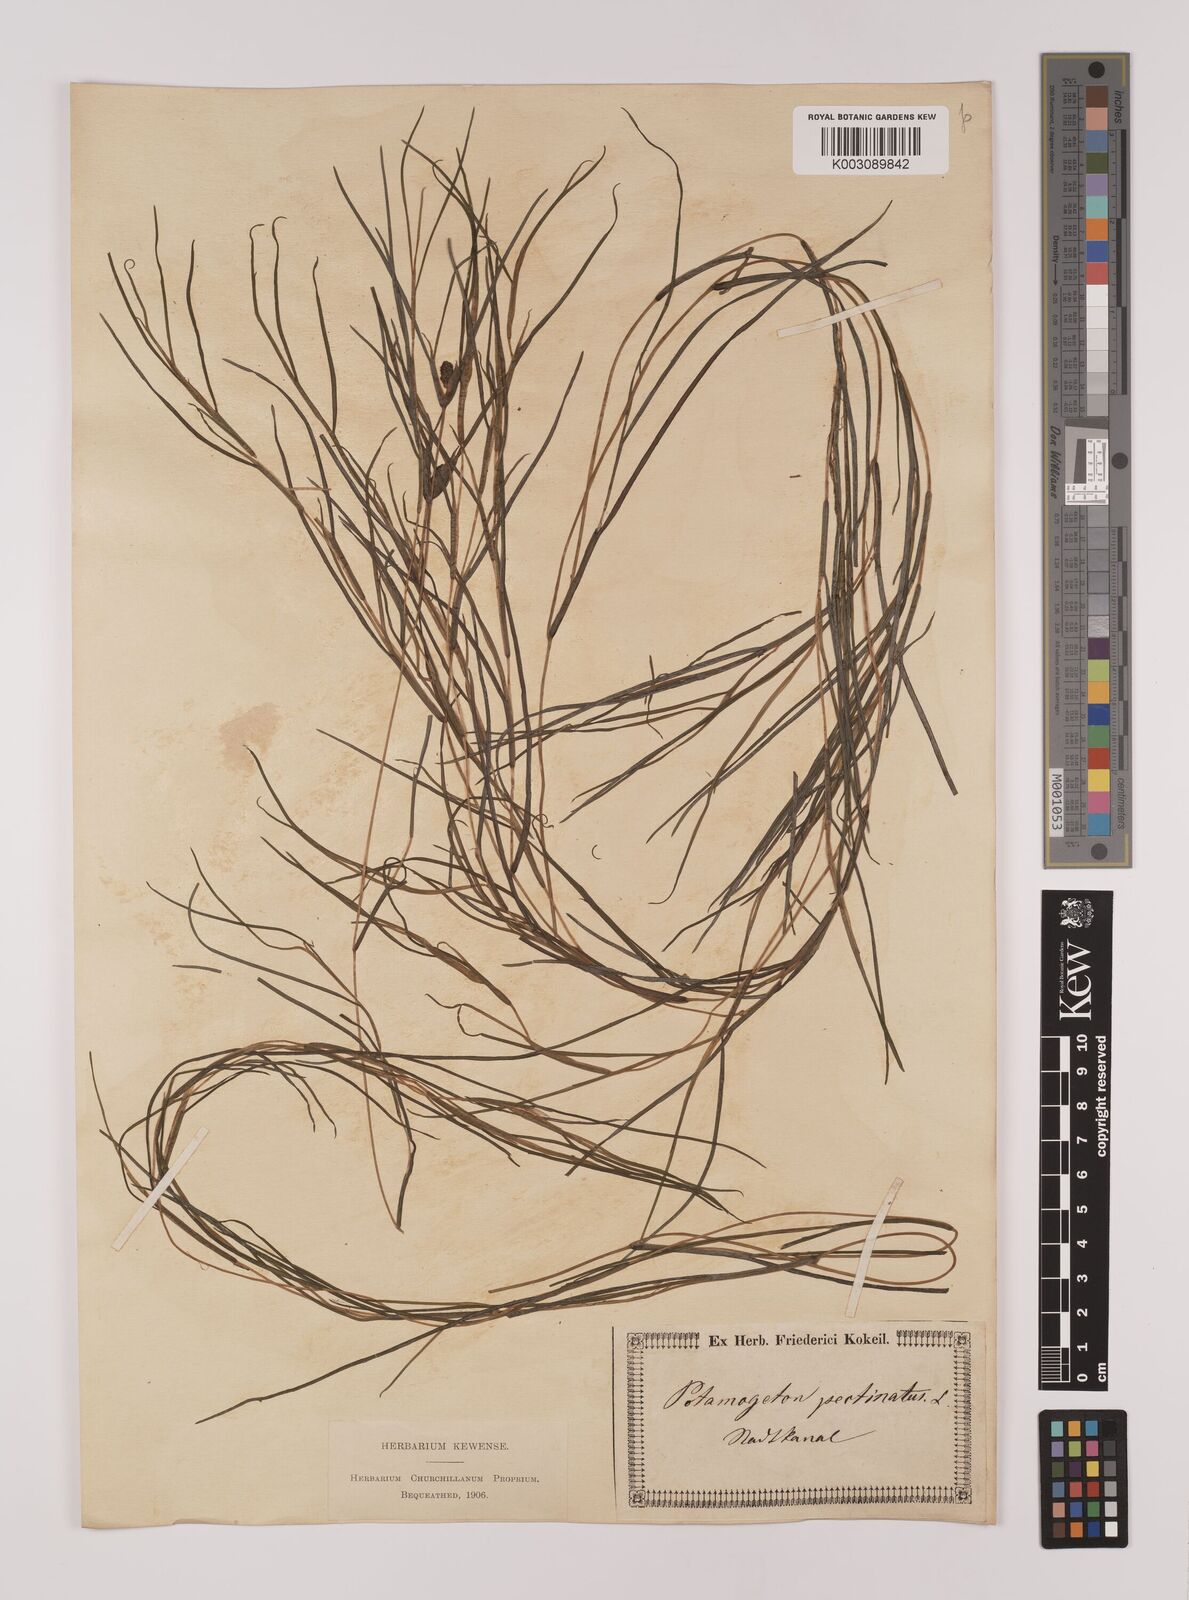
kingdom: Plantae
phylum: Tracheophyta
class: Liliopsida
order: Alismatales
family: Potamogetonaceae
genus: Stuckenia
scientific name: Stuckenia pectinata
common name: Sago pondweed
